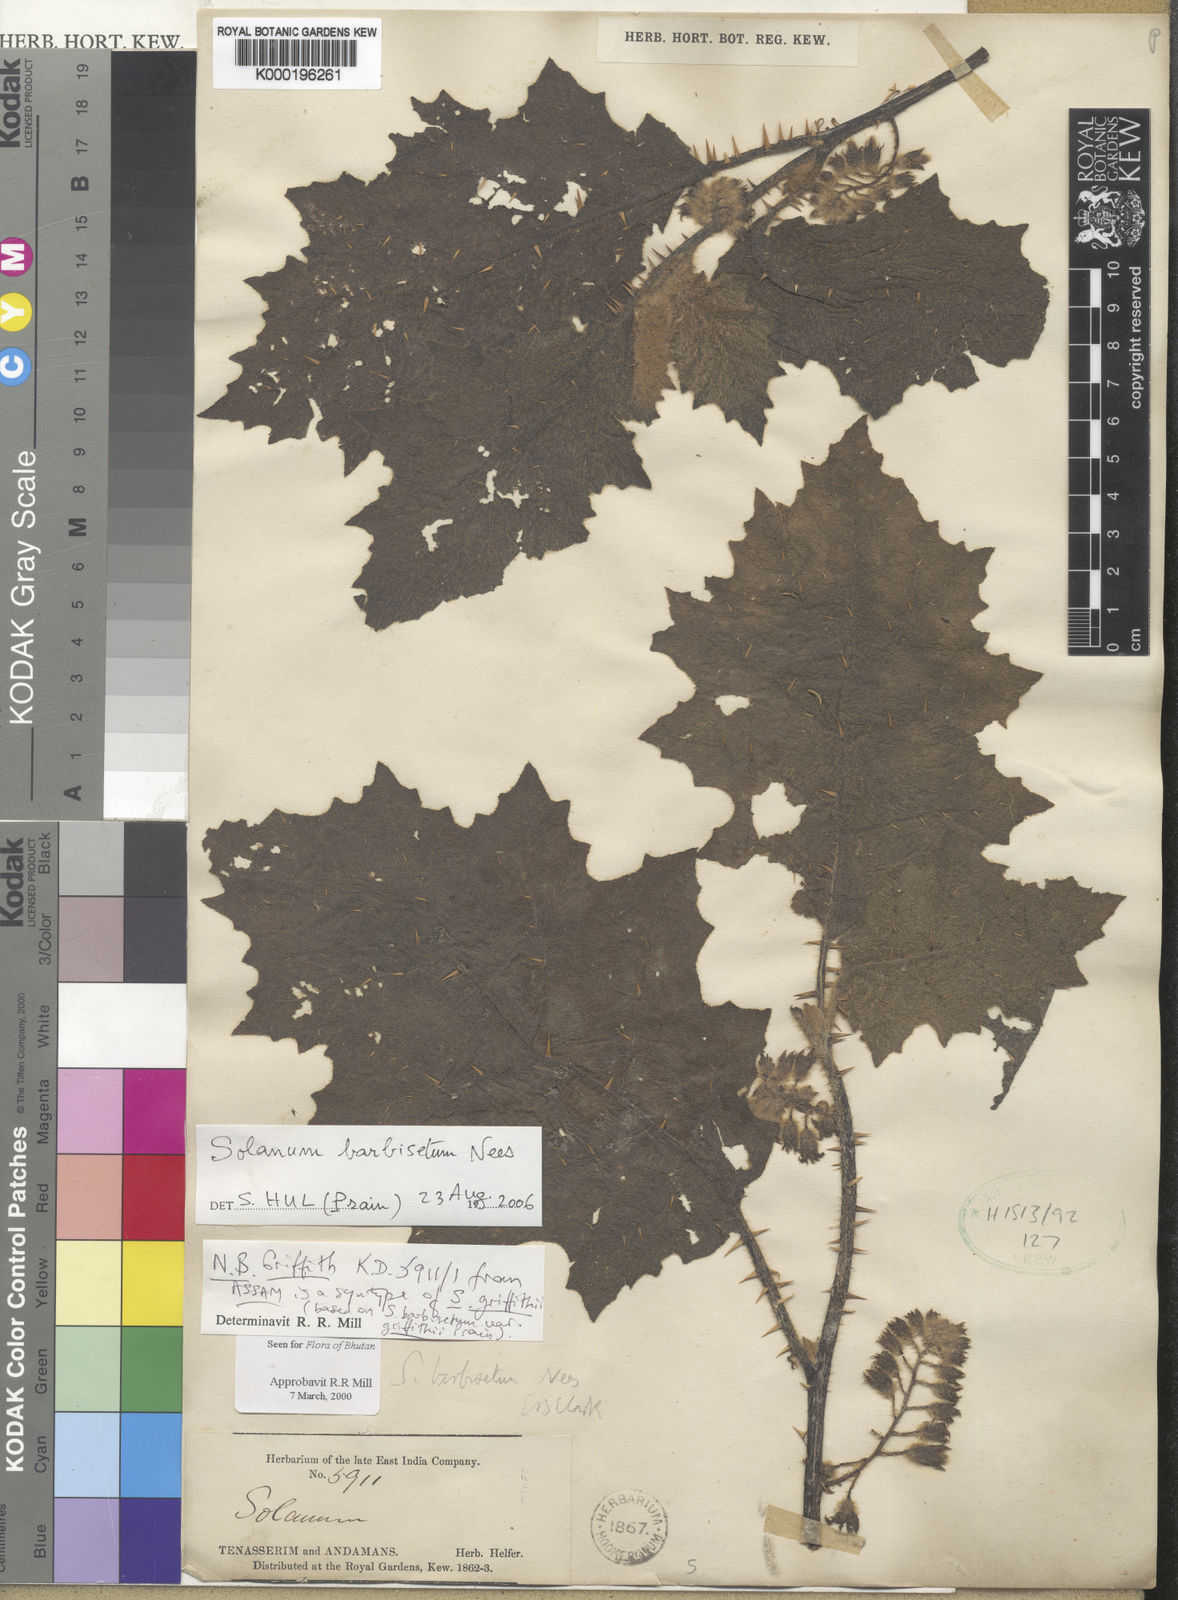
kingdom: Plantae
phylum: Tracheophyta
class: Magnoliopsida
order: Solanales
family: Solanaceae
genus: Solanum
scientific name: Solanum barbisetum
